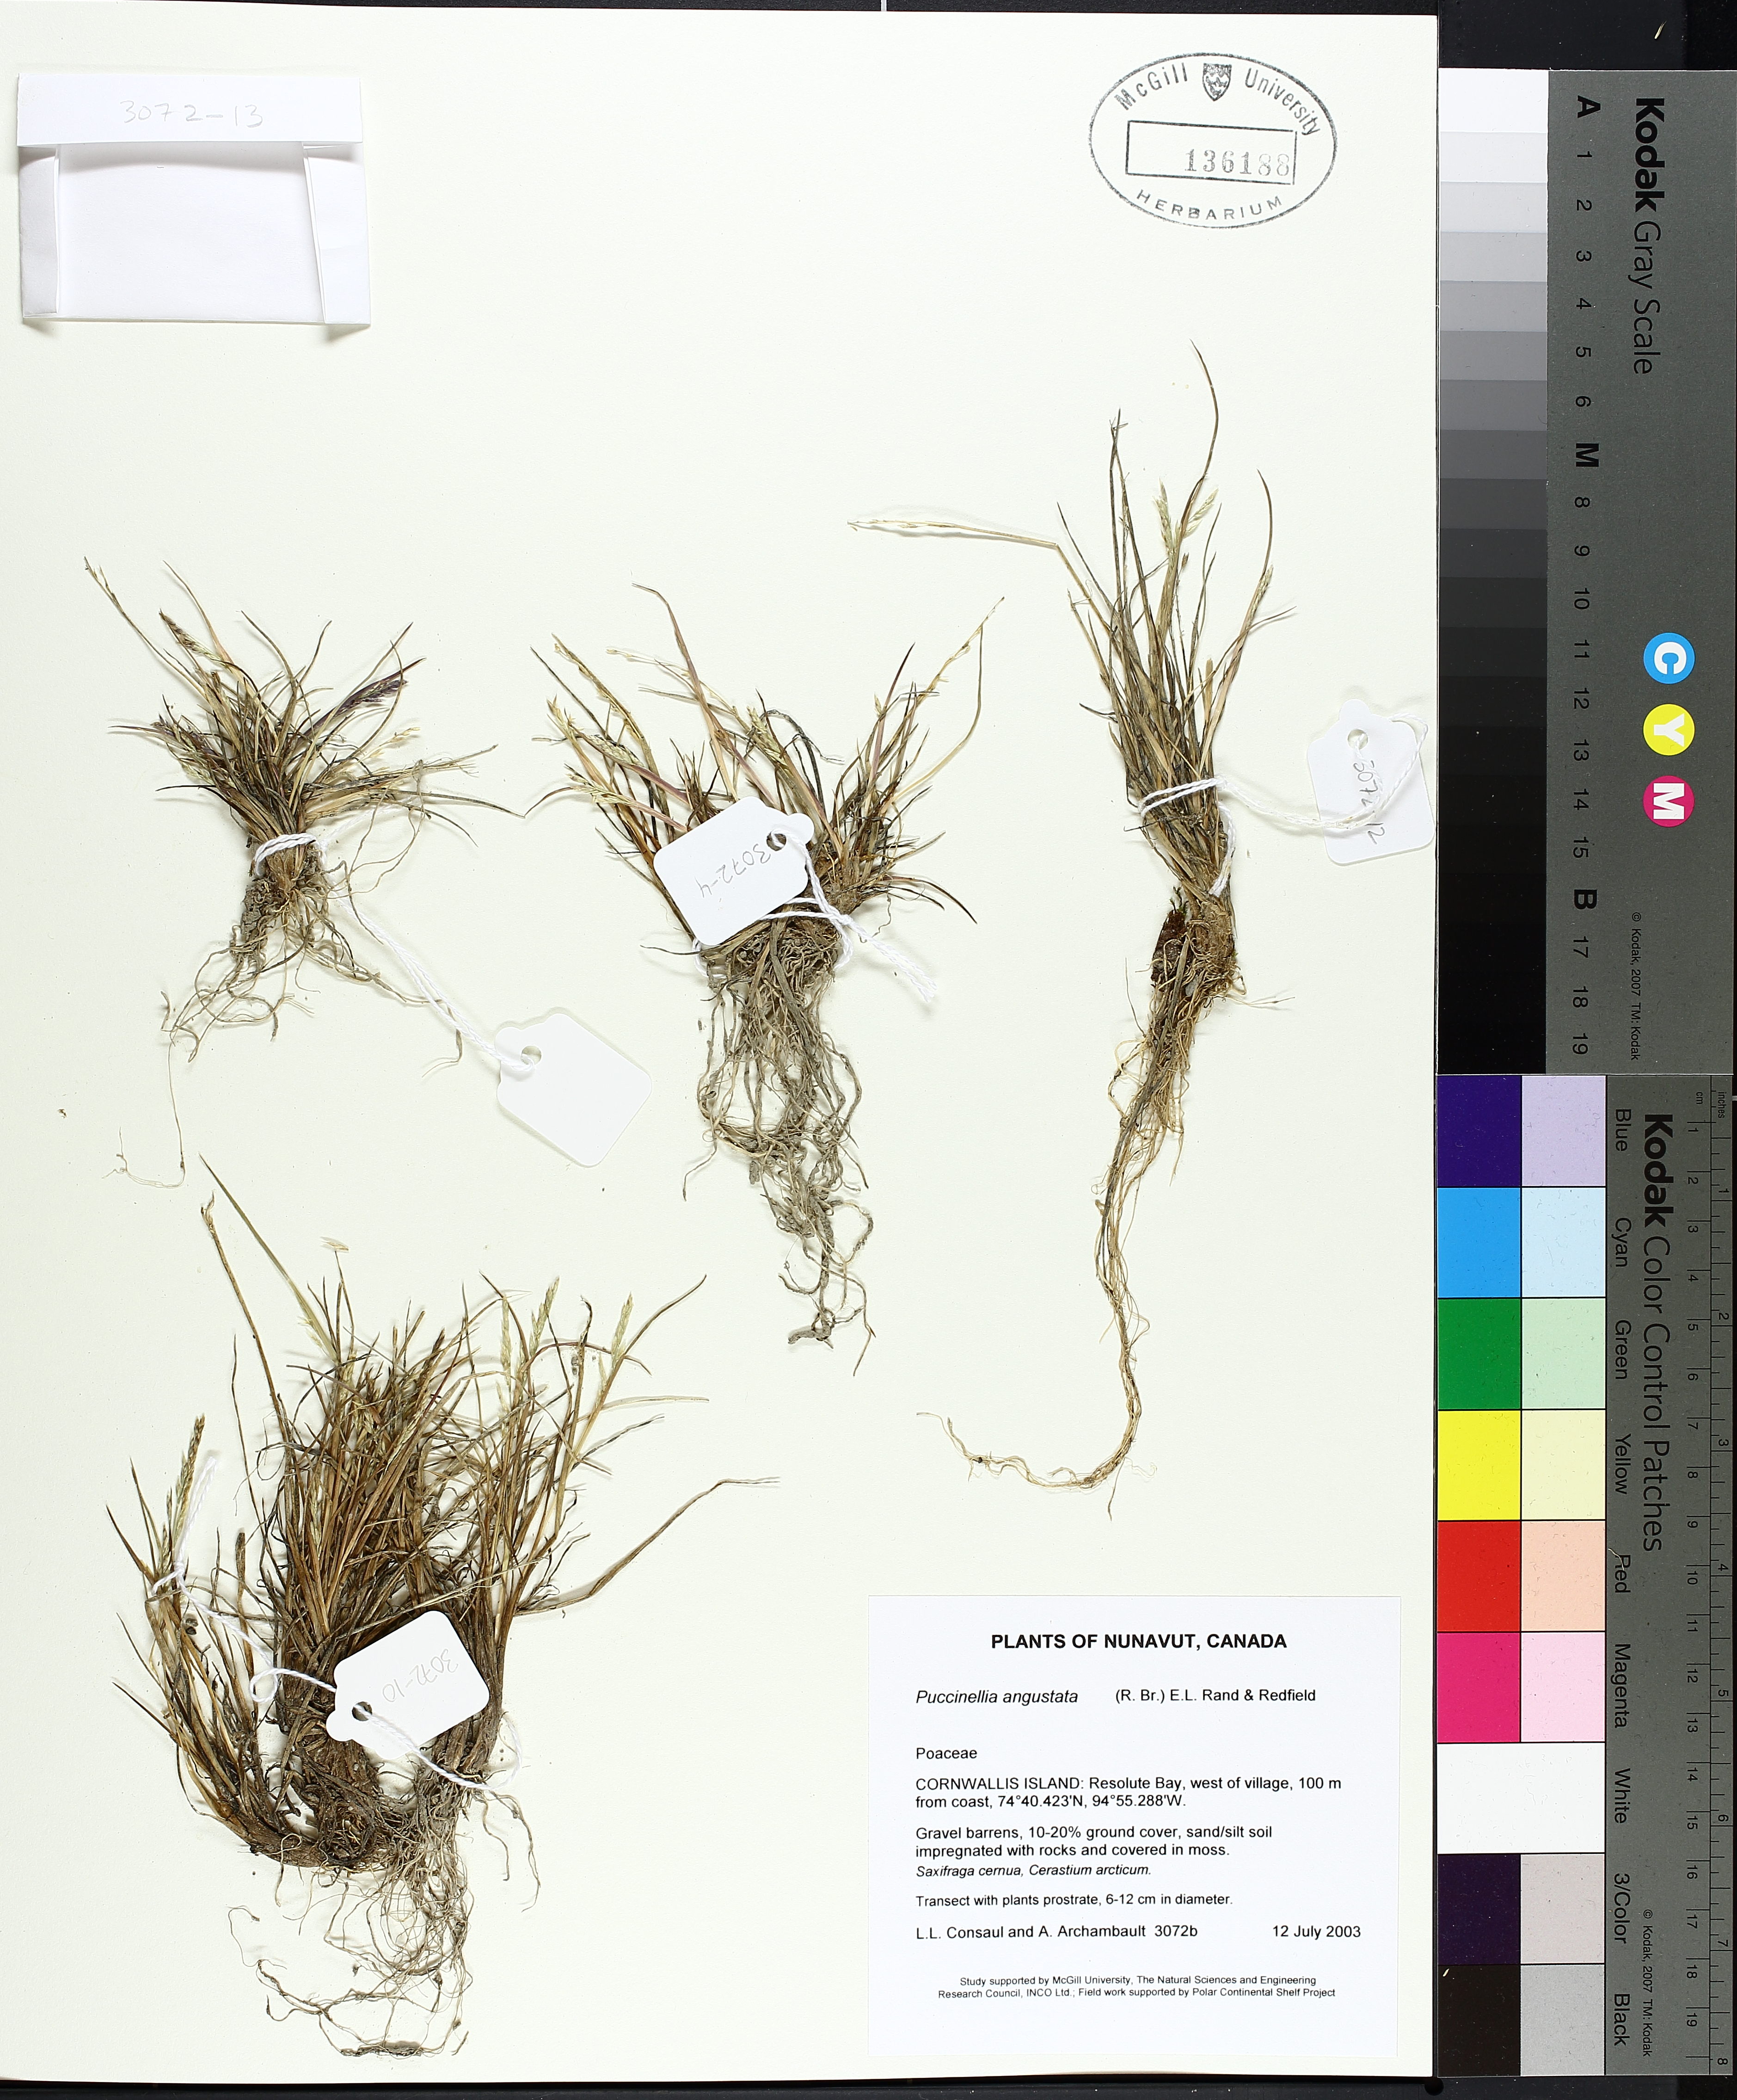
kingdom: Plantae
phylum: Tracheophyta
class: Liliopsida
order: Poales
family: Poaceae
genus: Puccinellia
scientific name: Puccinellia angustata
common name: Narrow alkaligrass
